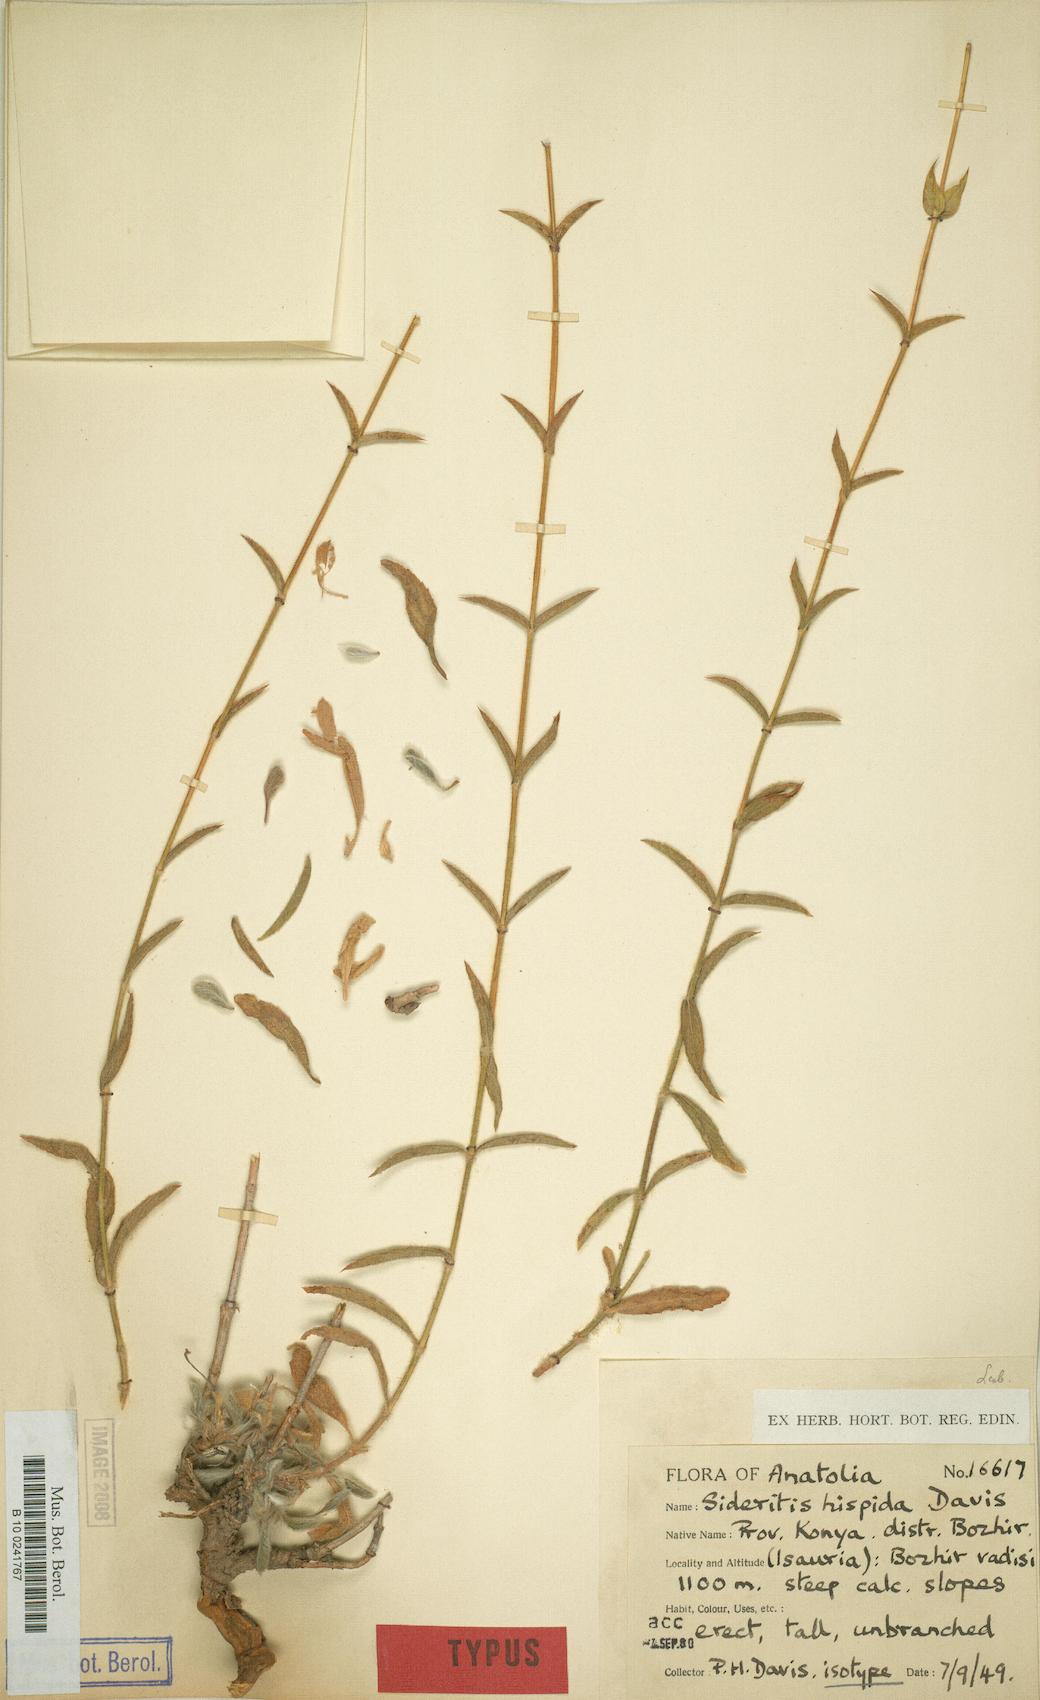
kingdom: Plantae
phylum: Tracheophyta
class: Magnoliopsida
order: Lamiales
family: Lamiaceae
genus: Sideritis
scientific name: Sideritis hispida
